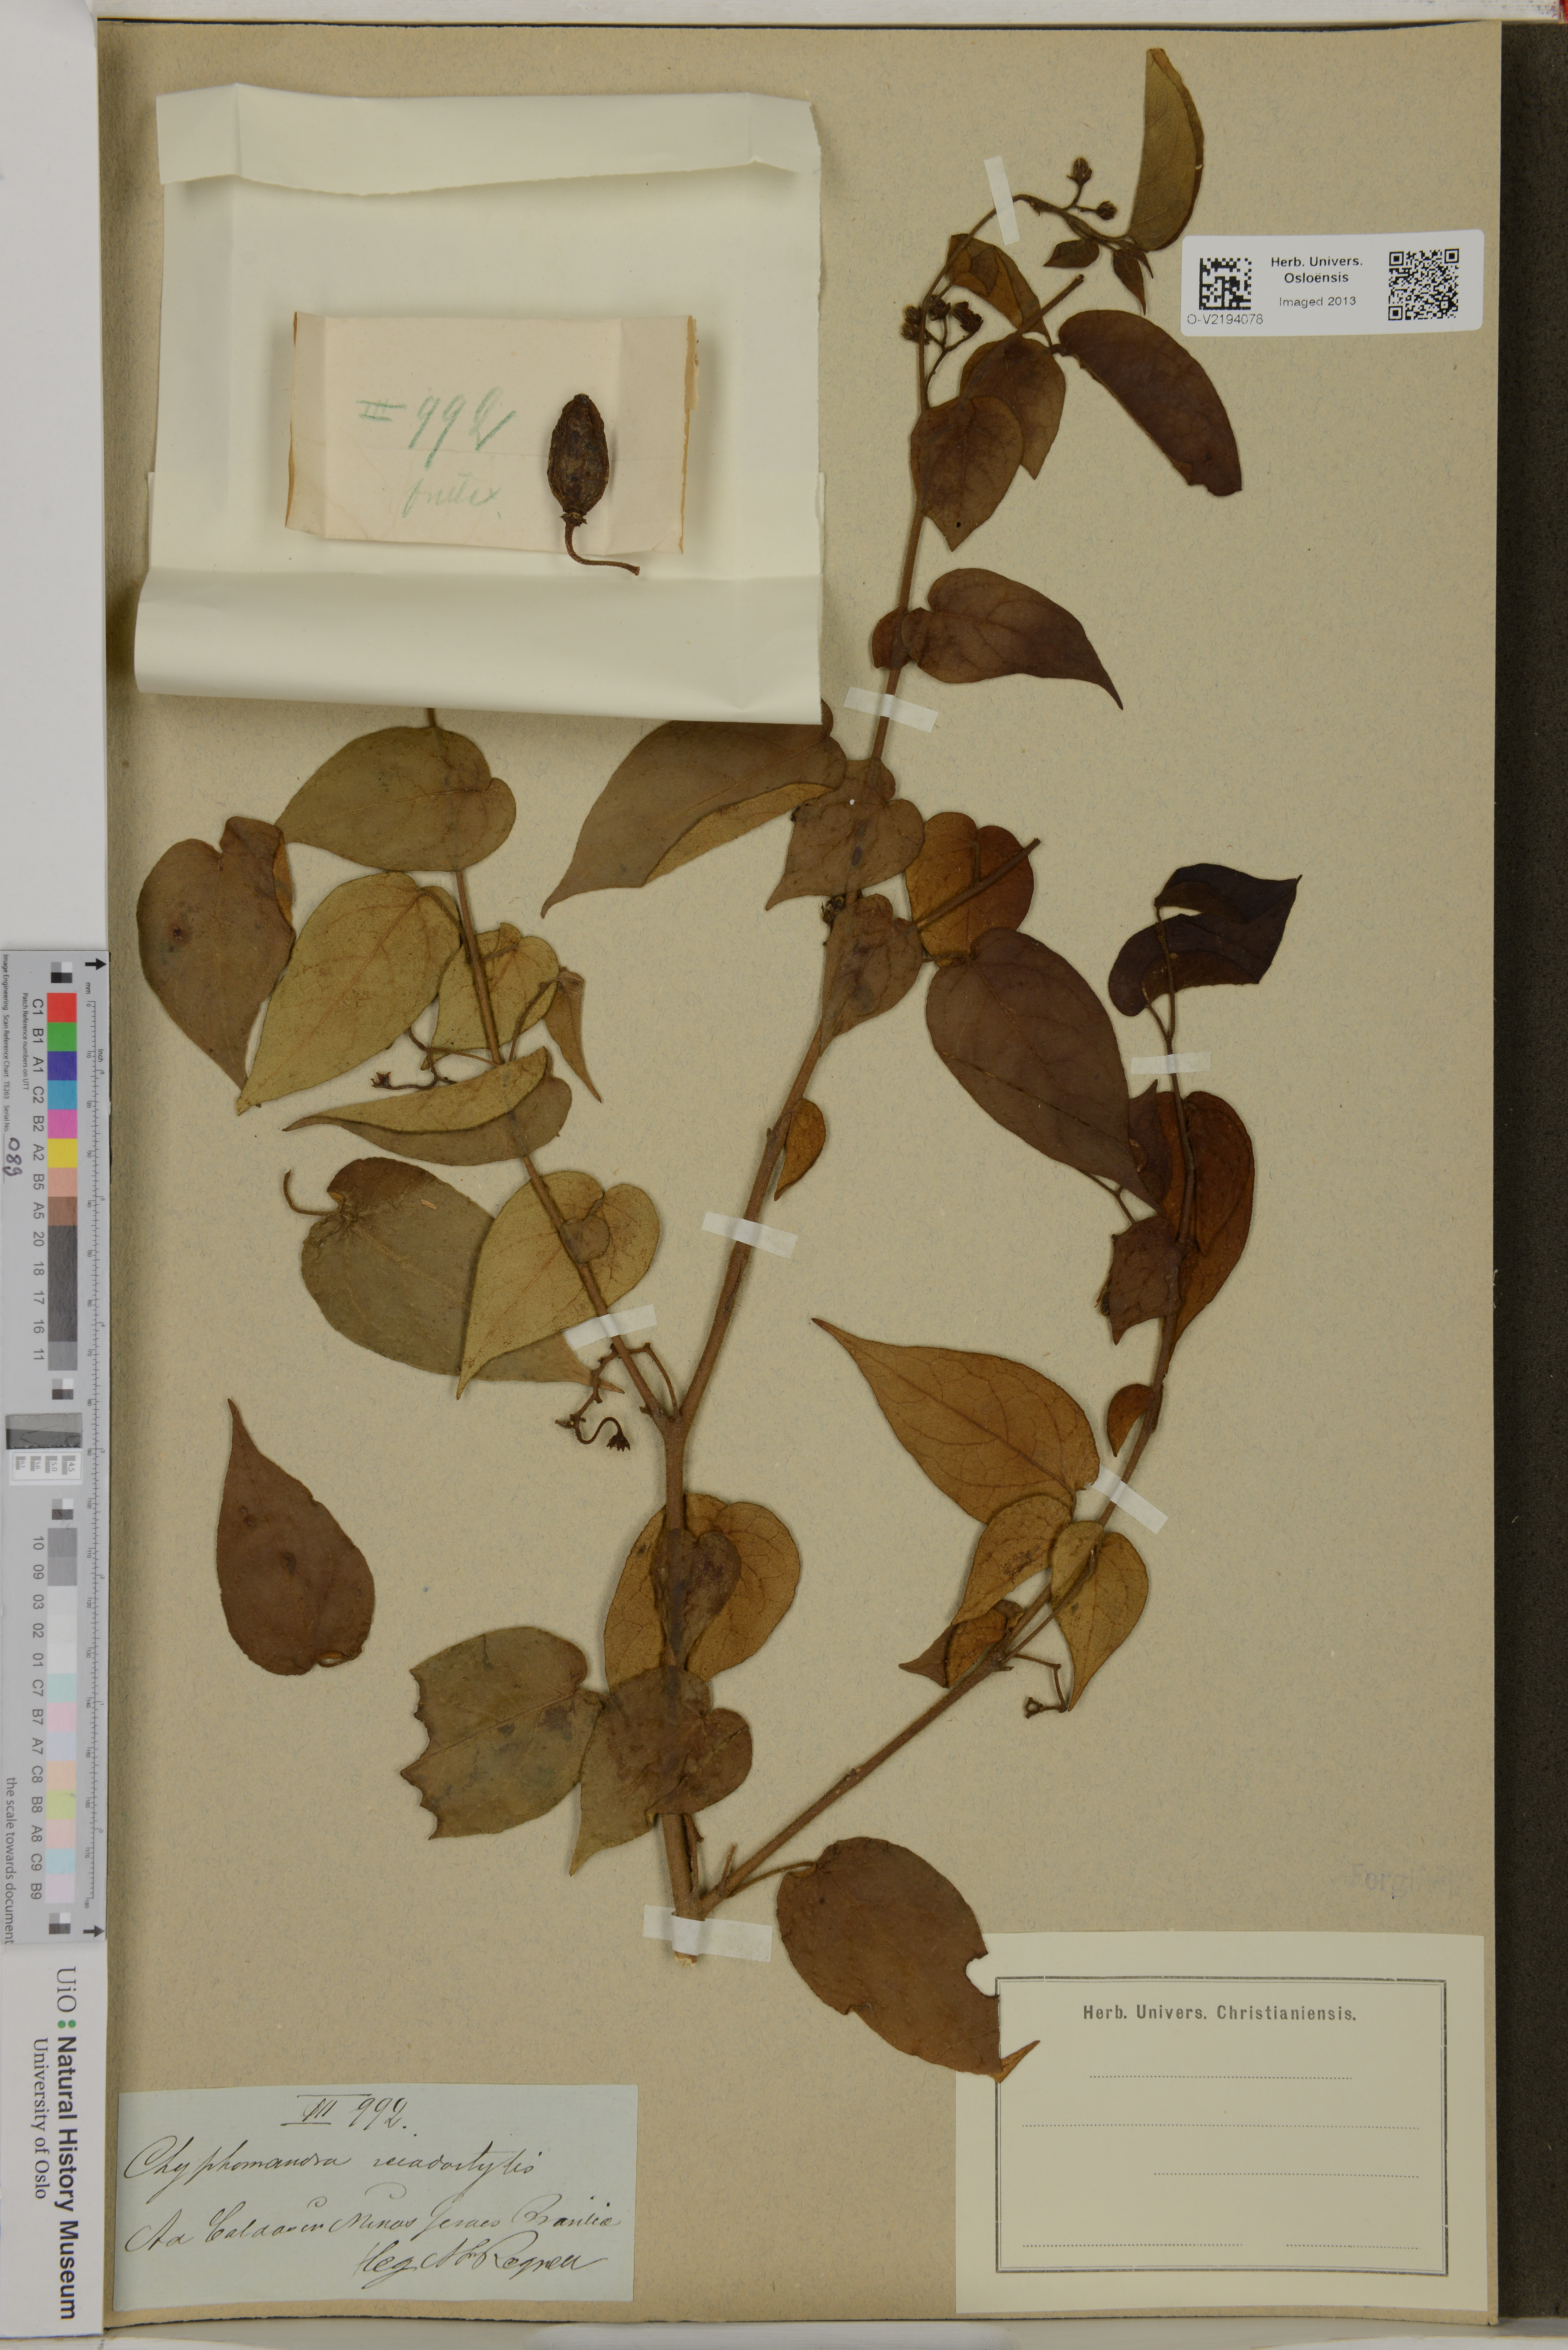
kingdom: Plantae
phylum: Tracheophyta
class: Magnoliopsida
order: Solanales
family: Solanaceae
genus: Solanum
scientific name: Solanum sciadostylis
